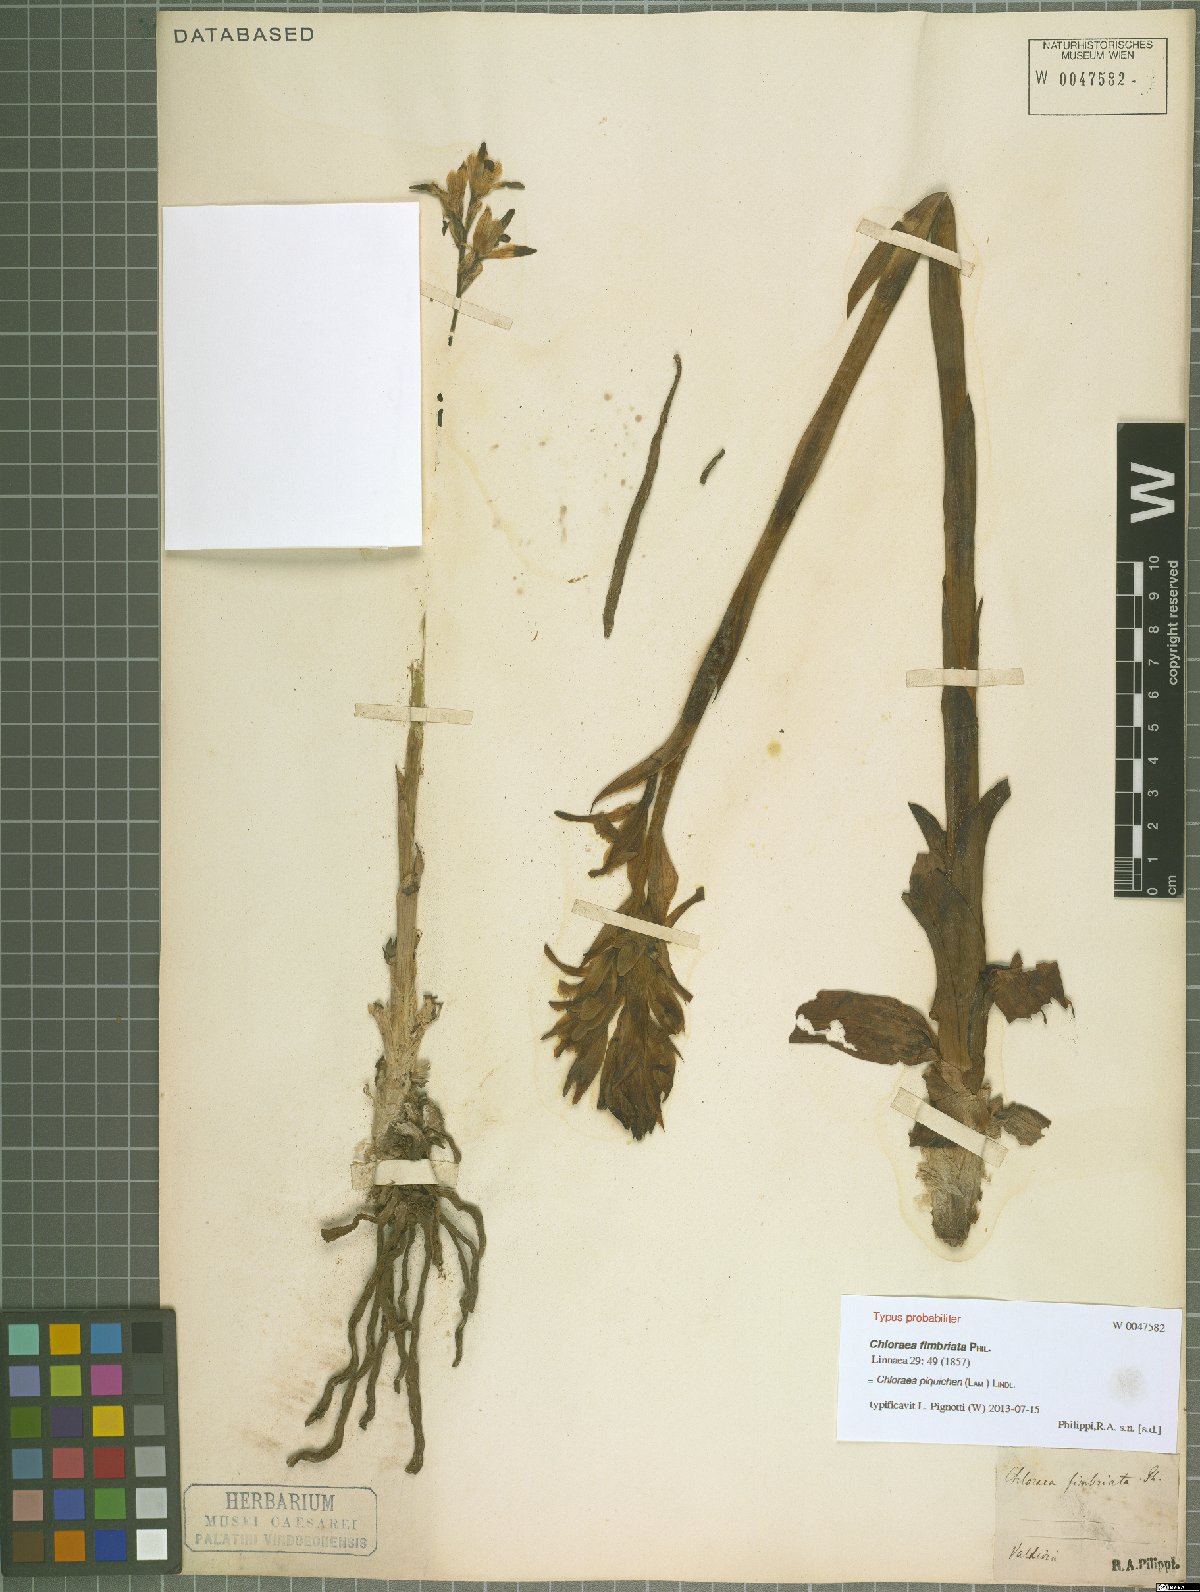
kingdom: Plantae
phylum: Tracheophyta
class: Liliopsida
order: Asparagales
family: Orchidaceae
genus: Chloraea
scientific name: Chloraea piquichen
